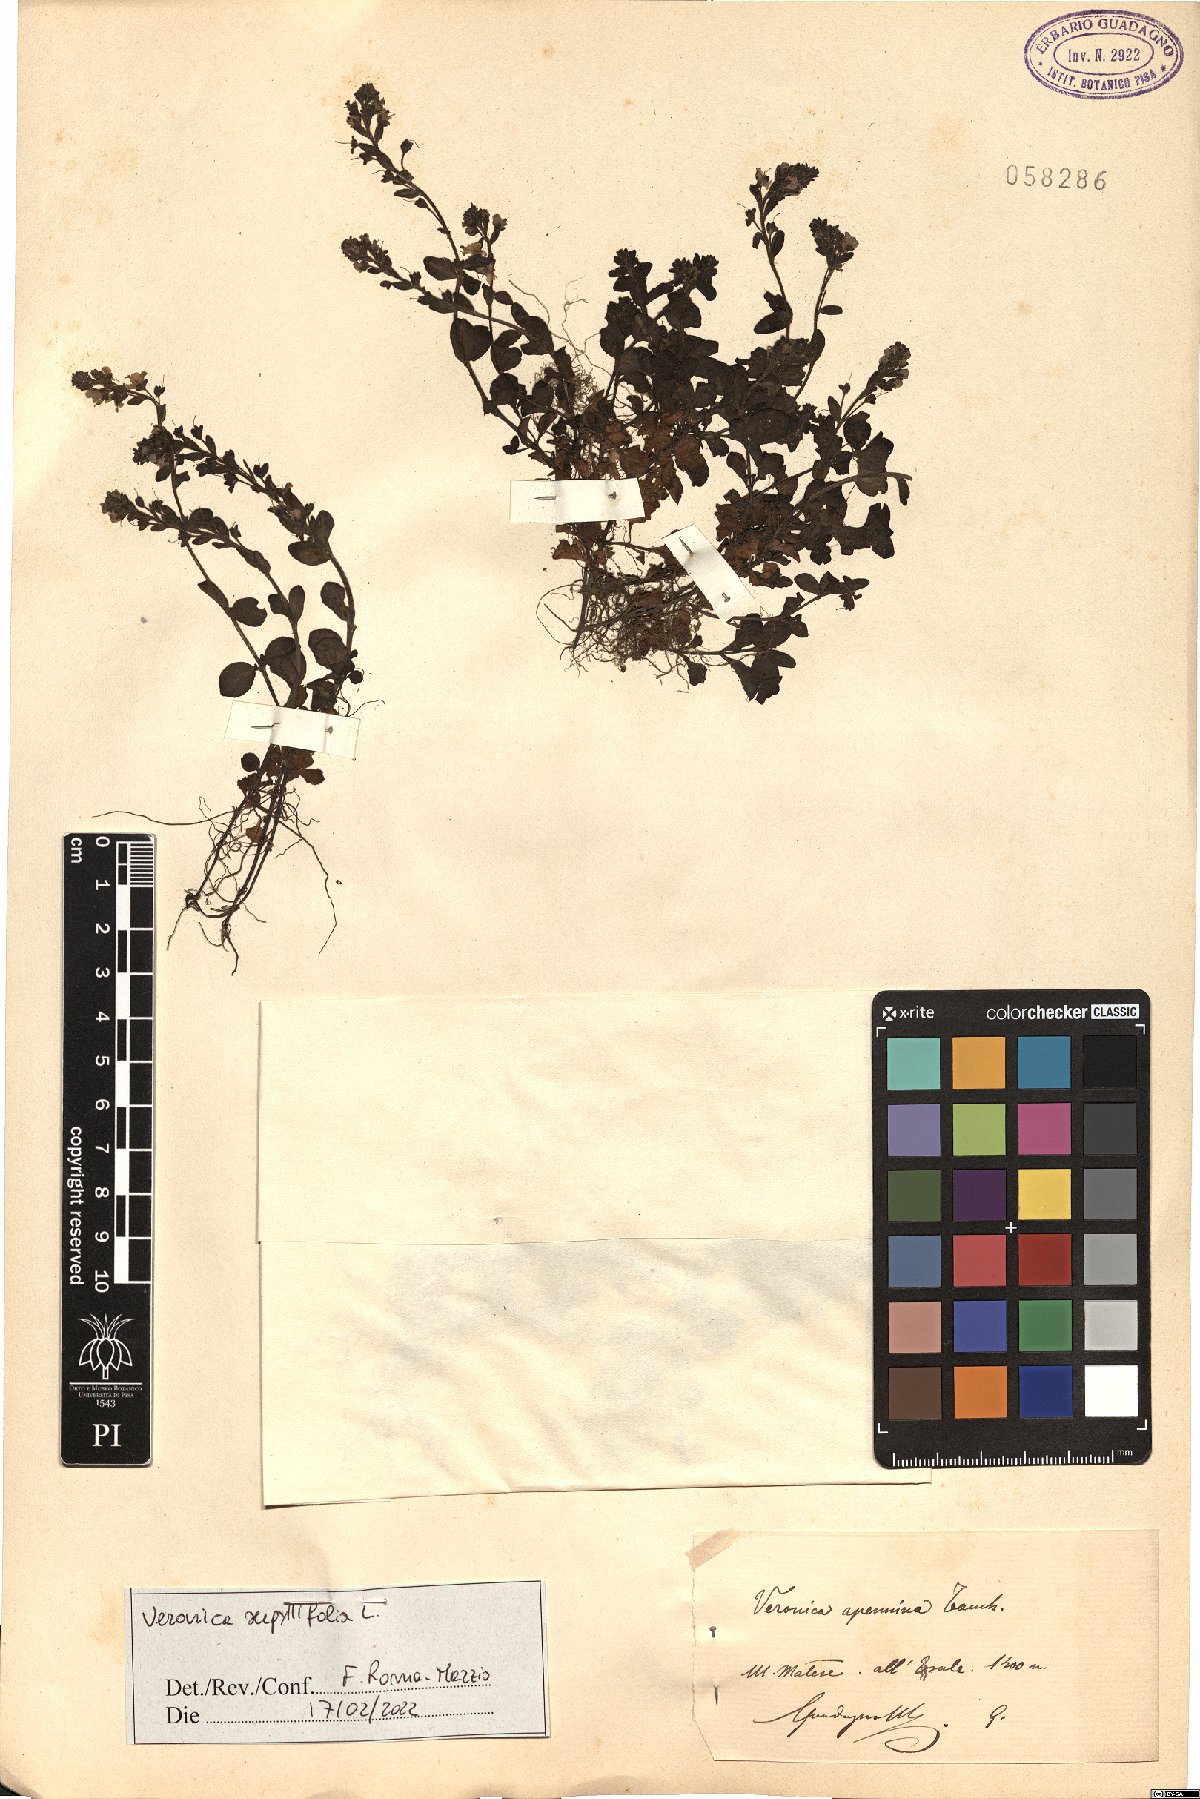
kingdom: Plantae
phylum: Tracheophyta
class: Magnoliopsida
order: Lamiales
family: Plantaginaceae
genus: Veronica
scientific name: Veronica serpyllifolia
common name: Thyme-leaved speedwell
